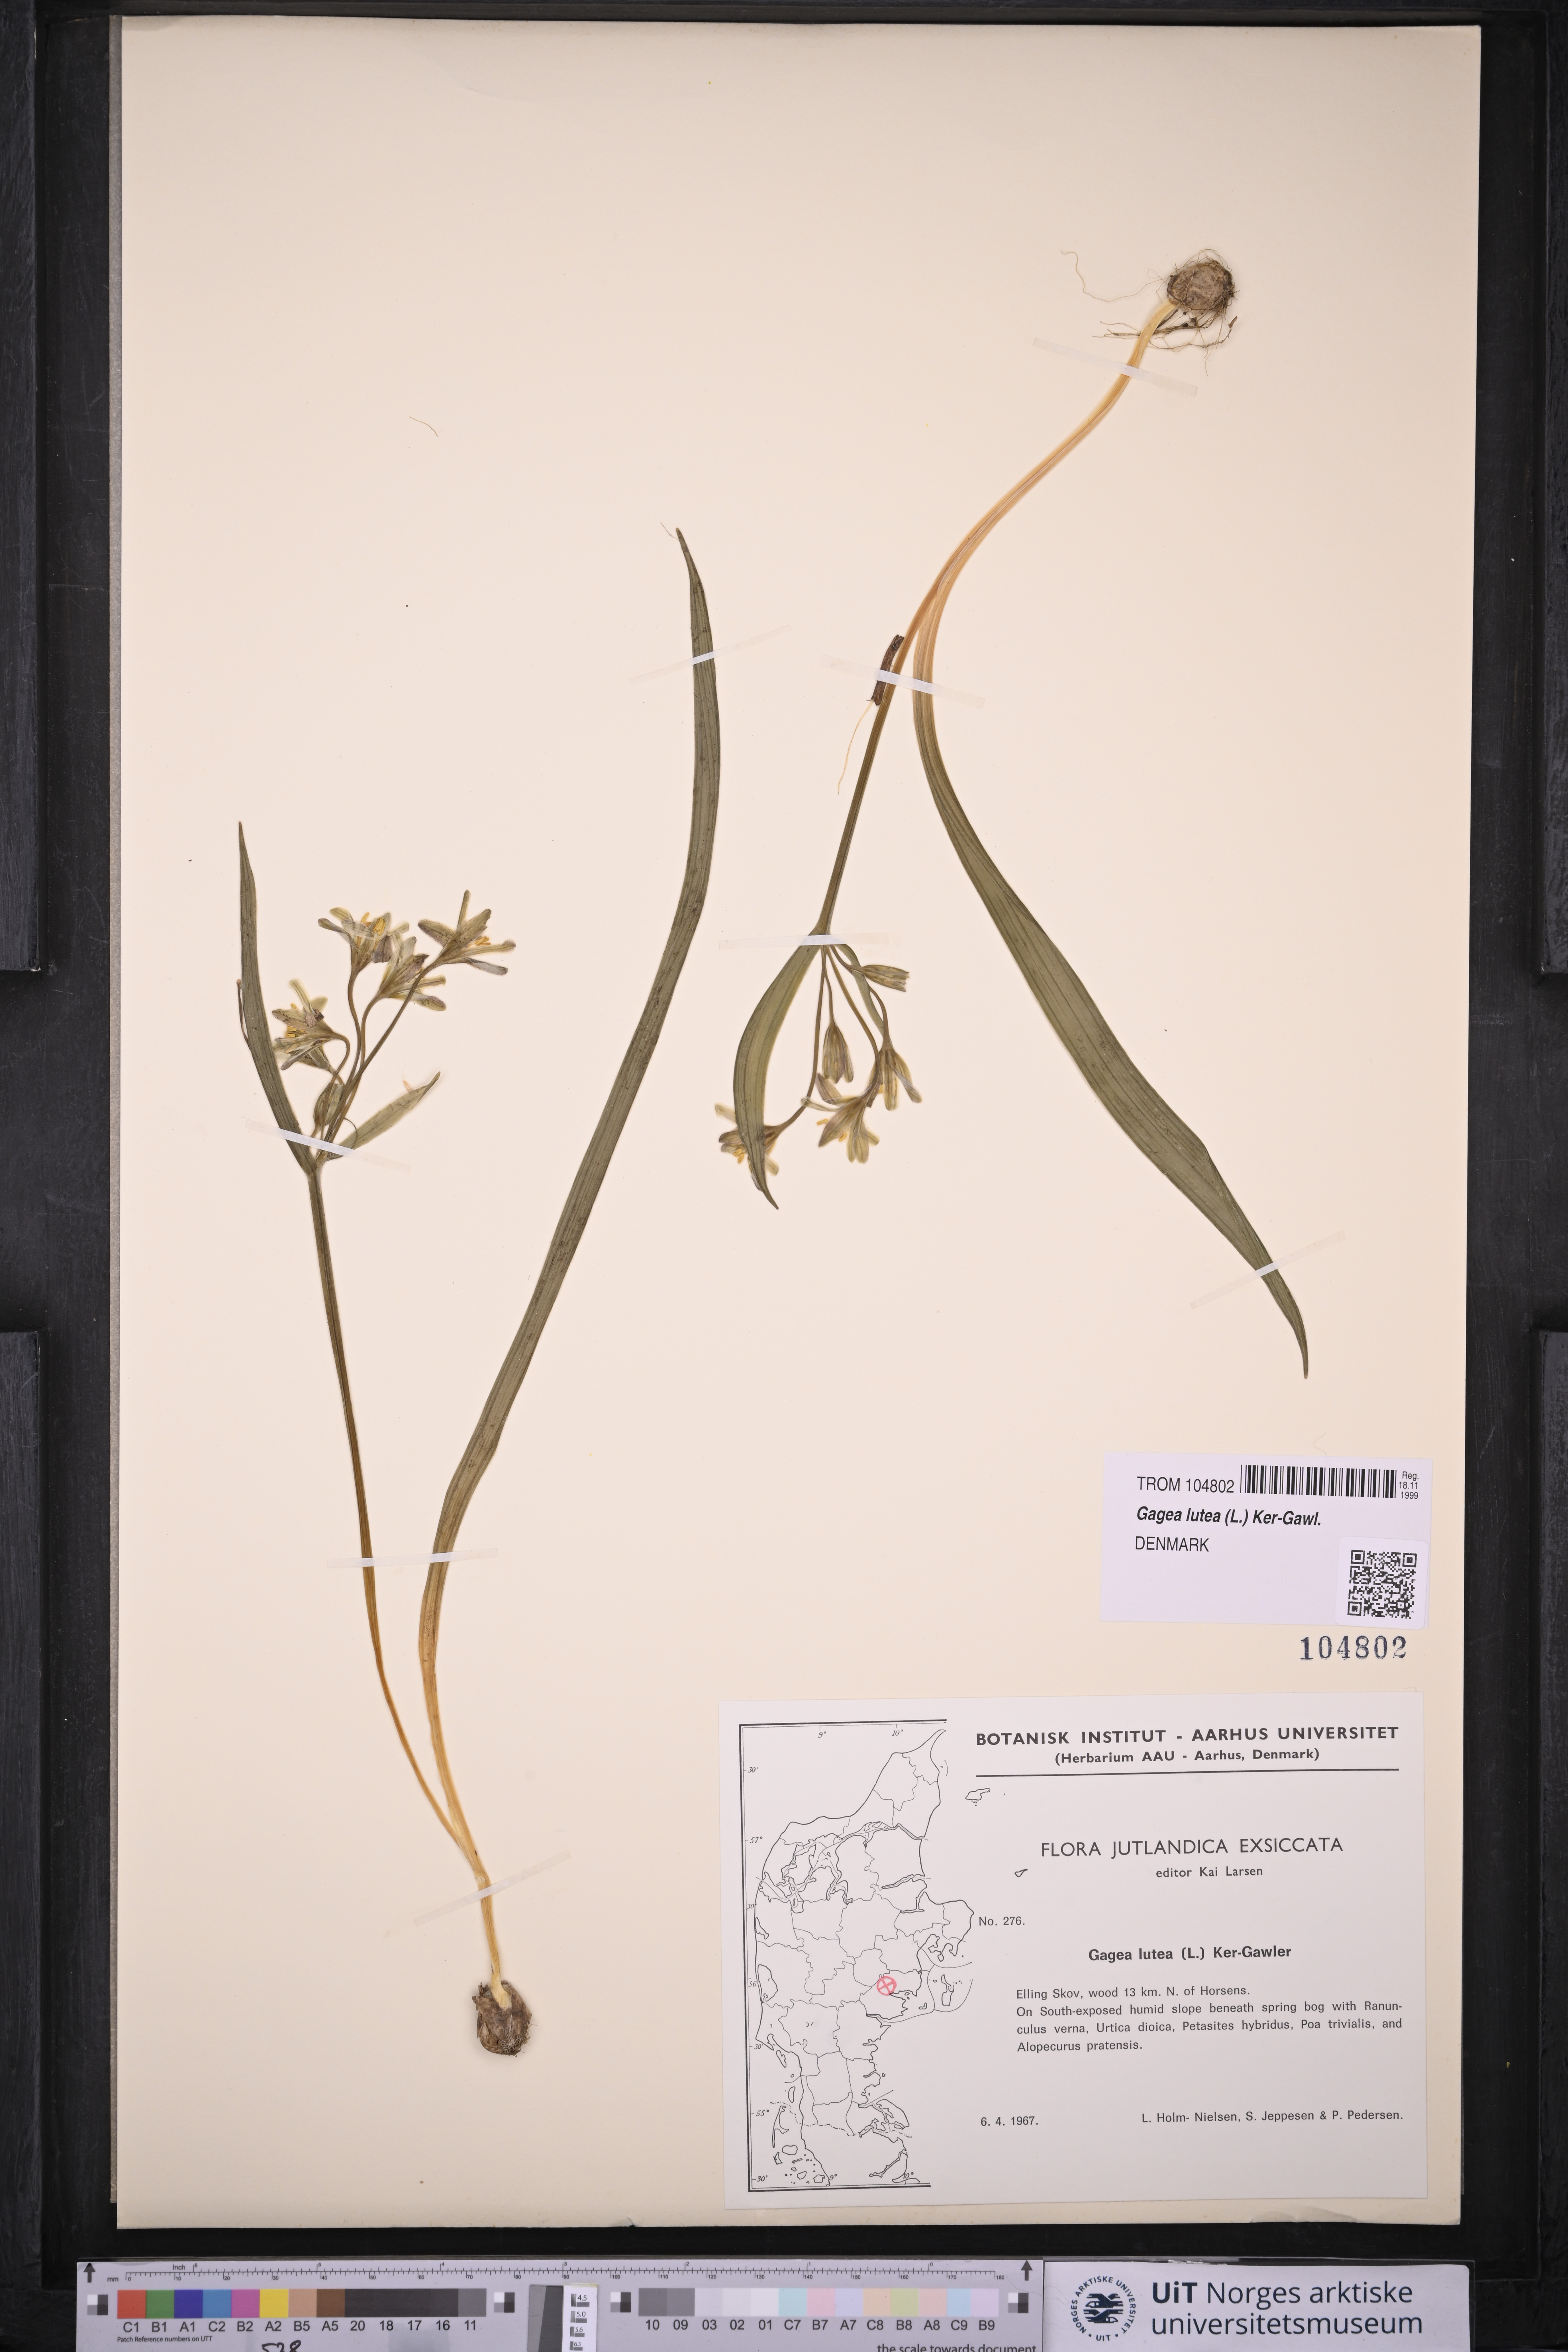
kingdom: Plantae
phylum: Tracheophyta
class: Liliopsida
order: Liliales
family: Liliaceae
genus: Gagea
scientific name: Gagea lutea
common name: Yellow star-of-bethlehem
